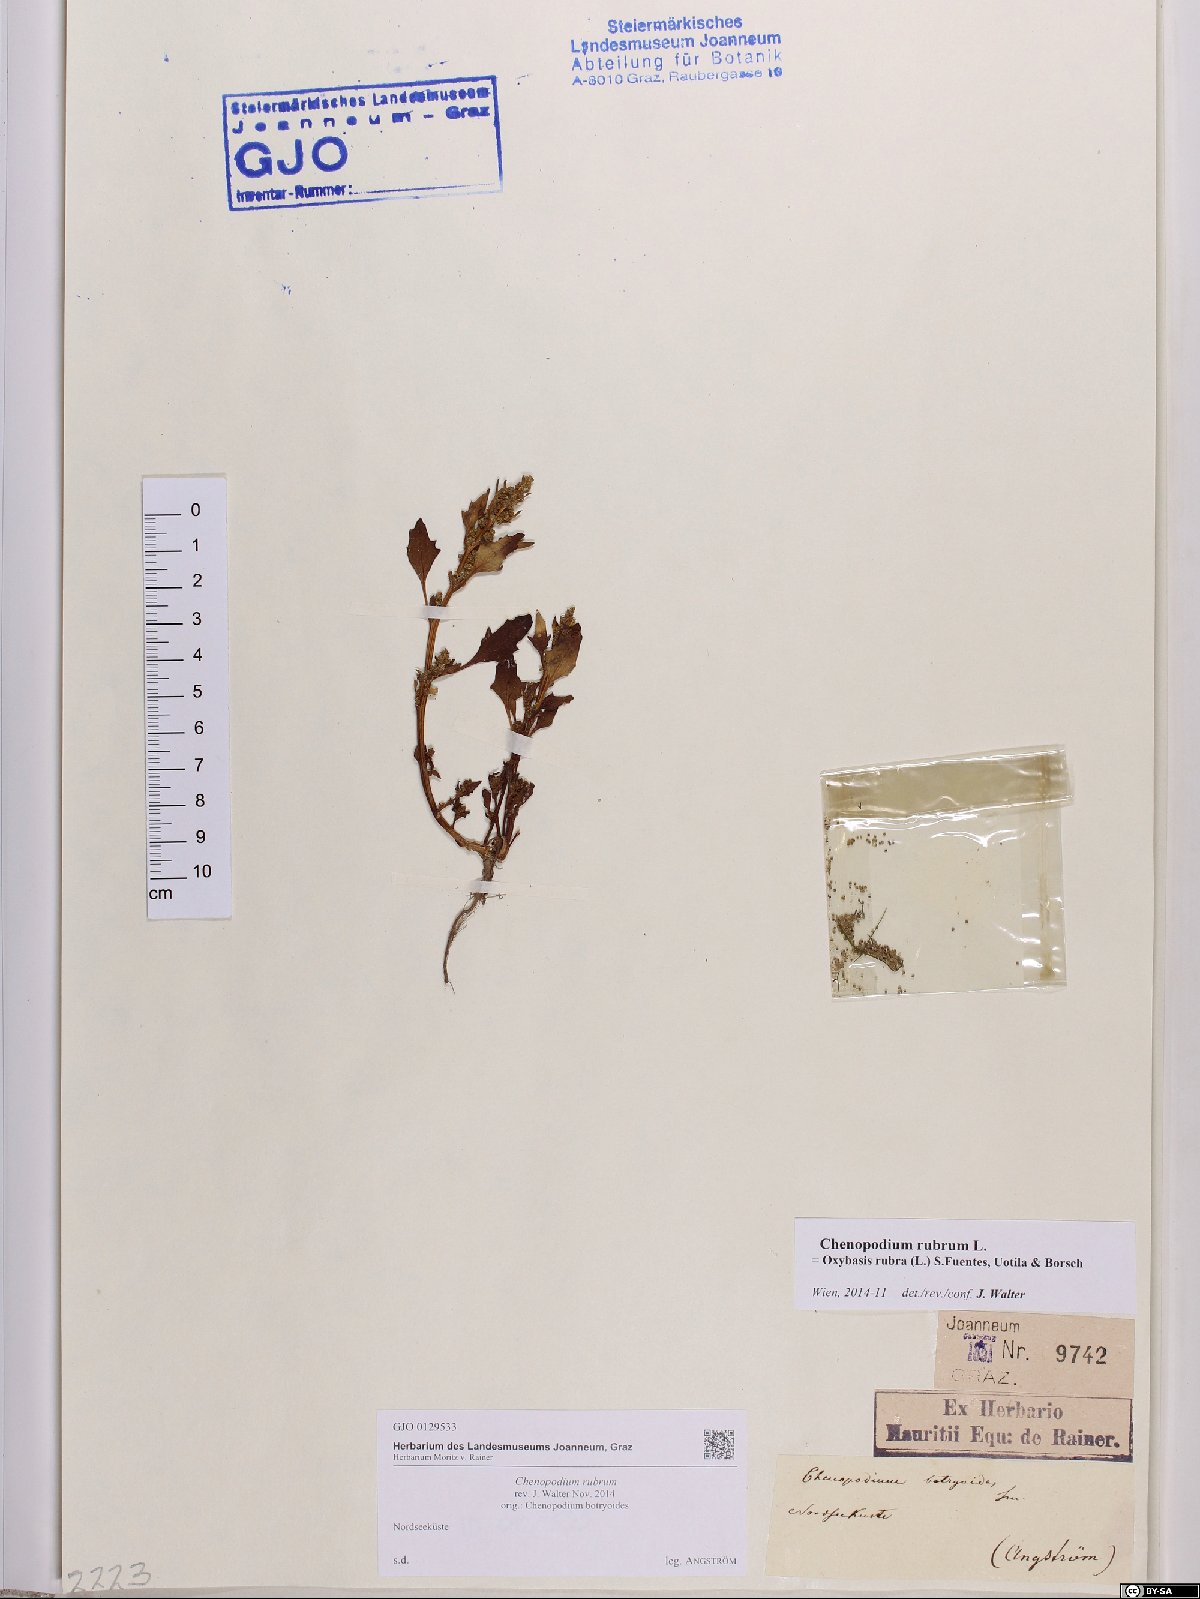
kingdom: Plantae
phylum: Tracheophyta
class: Magnoliopsida
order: Caryophyllales
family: Amaranthaceae
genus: Oxybasis
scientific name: Oxybasis rubra
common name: Red goosefoot
